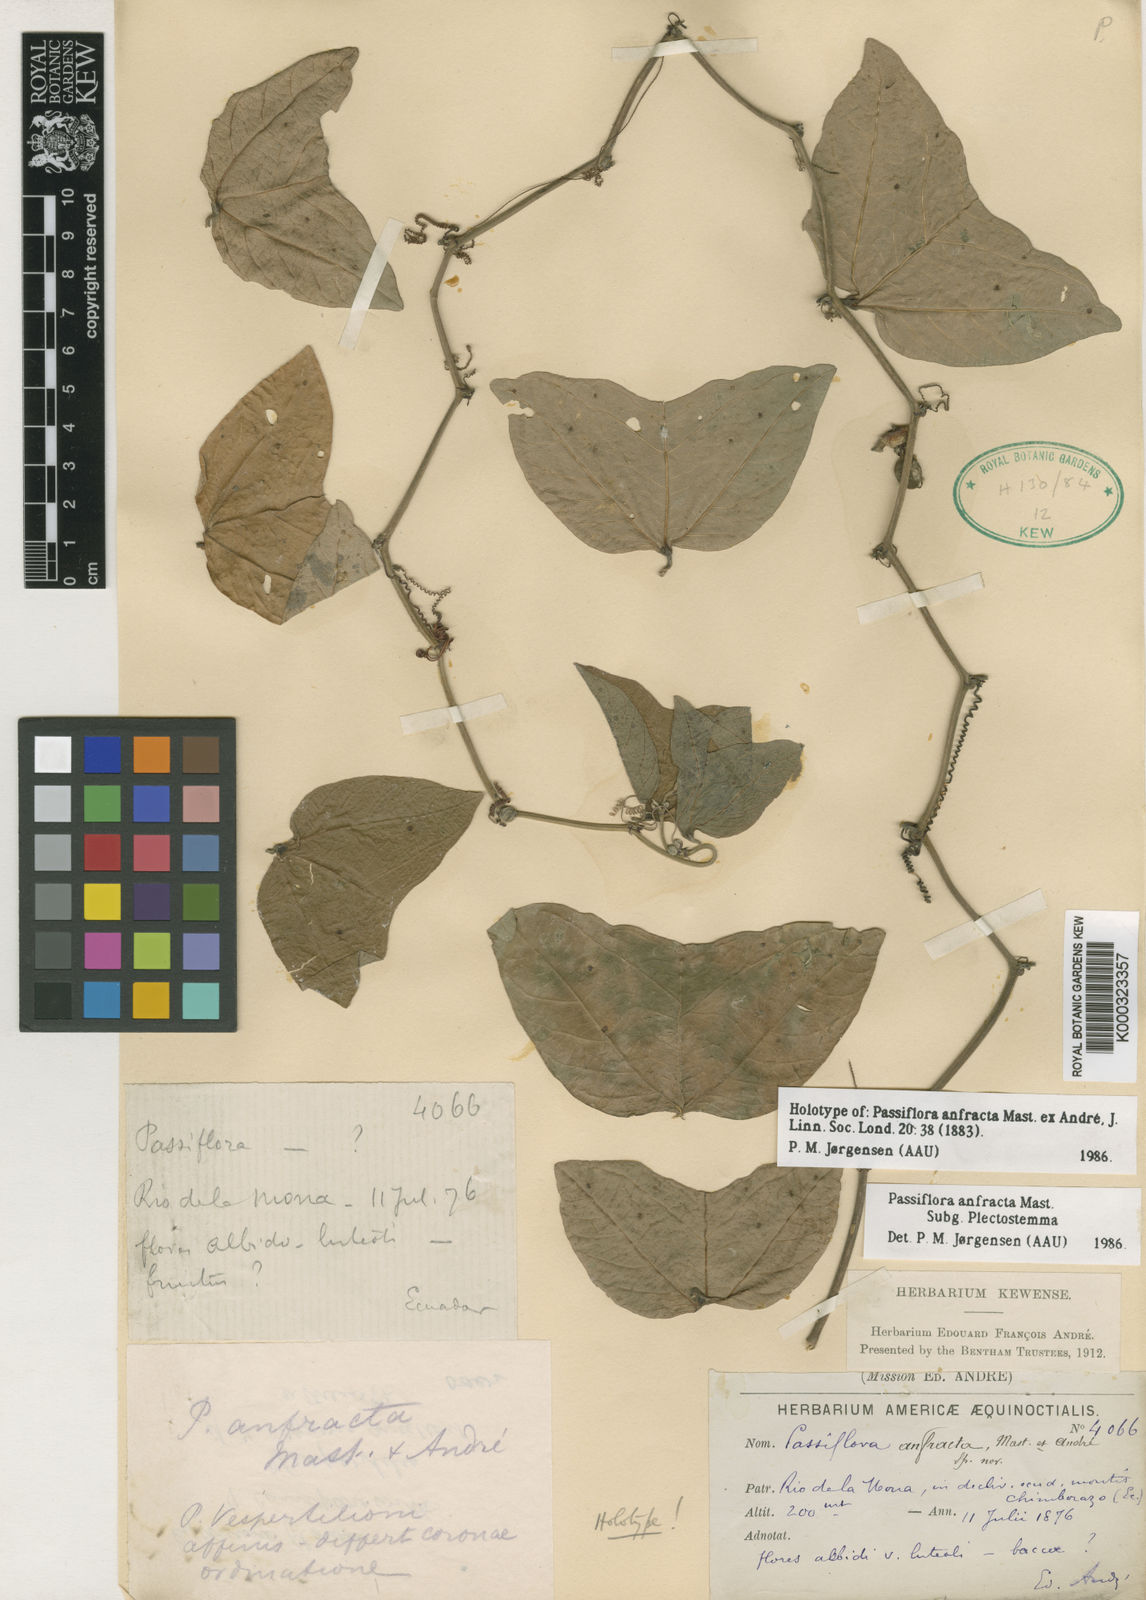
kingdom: Plantae
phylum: Tracheophyta
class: Magnoliopsida
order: Malpighiales
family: Passifloraceae
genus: Passiflora
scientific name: Passiflora
